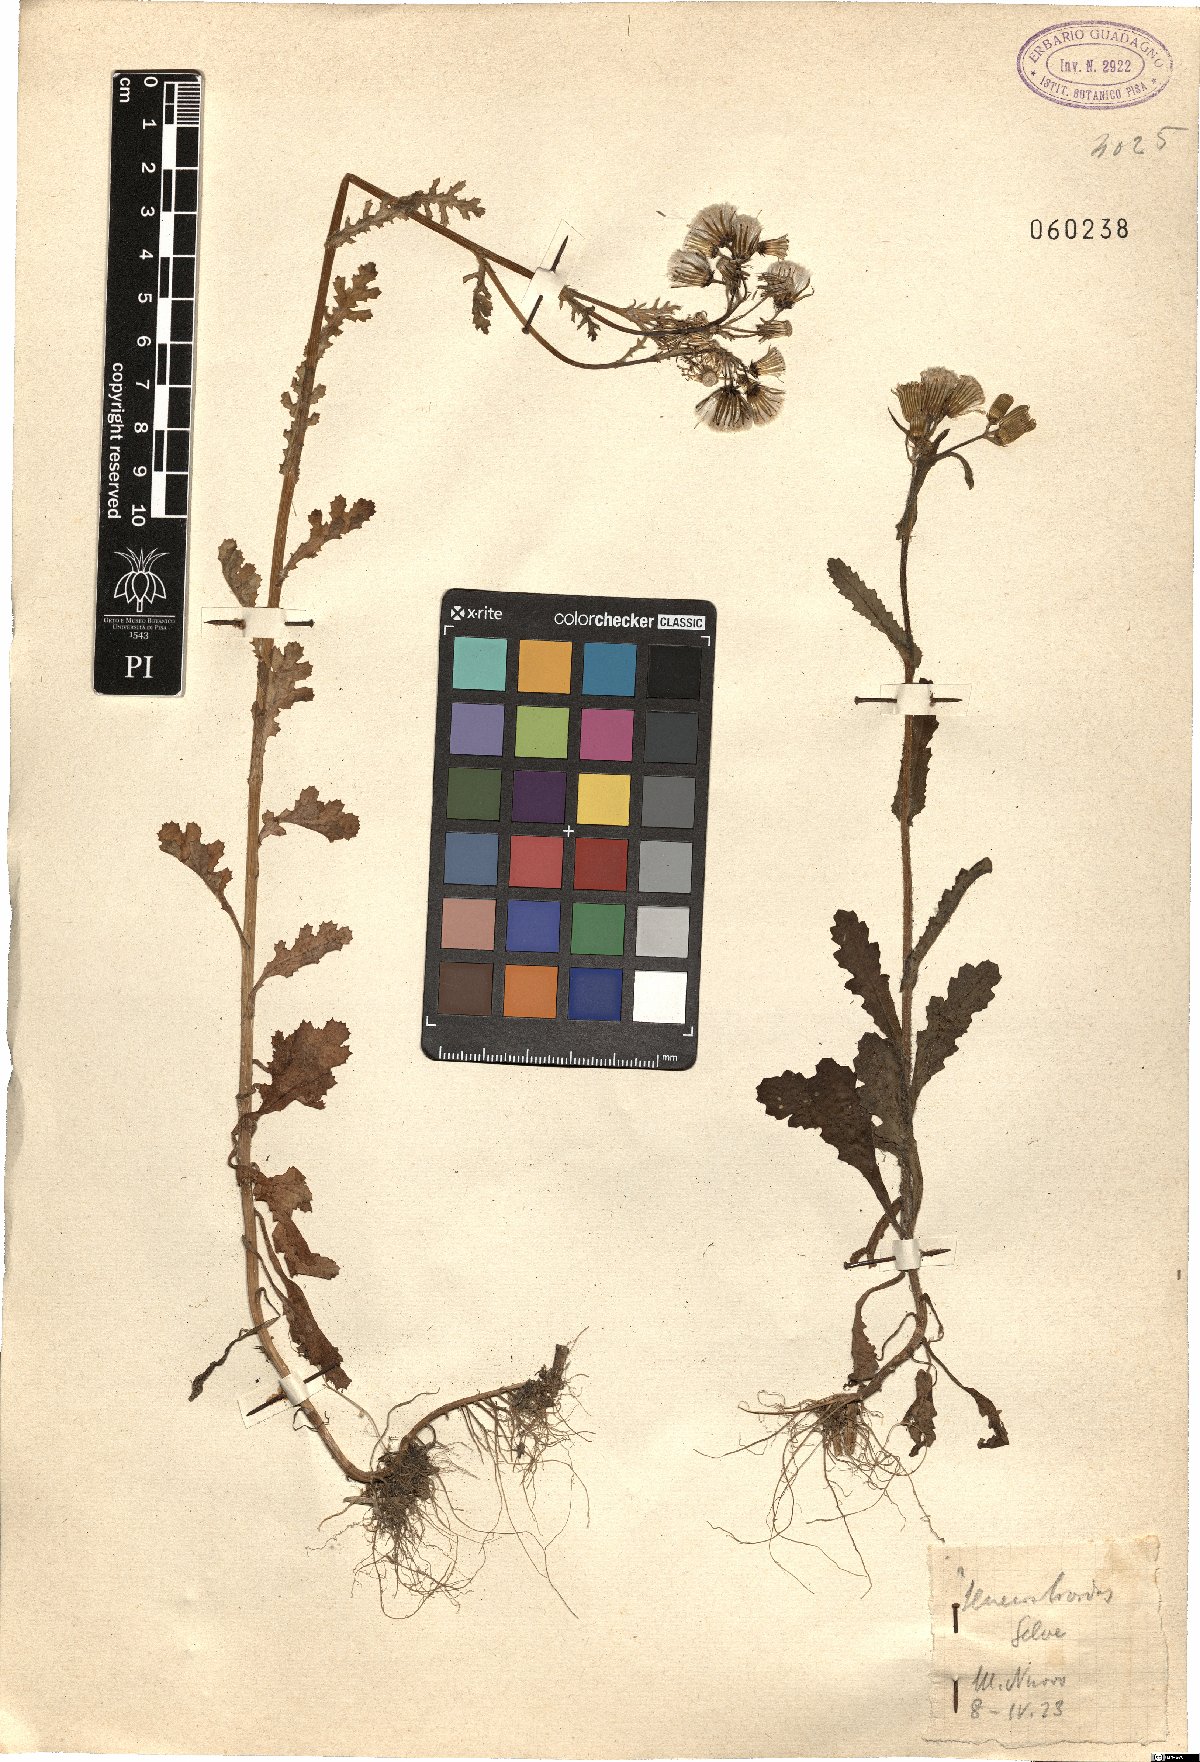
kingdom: Plantae
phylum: Tracheophyta
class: Magnoliopsida
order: Asterales
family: Asteraceae
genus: Senecio
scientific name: Senecio
